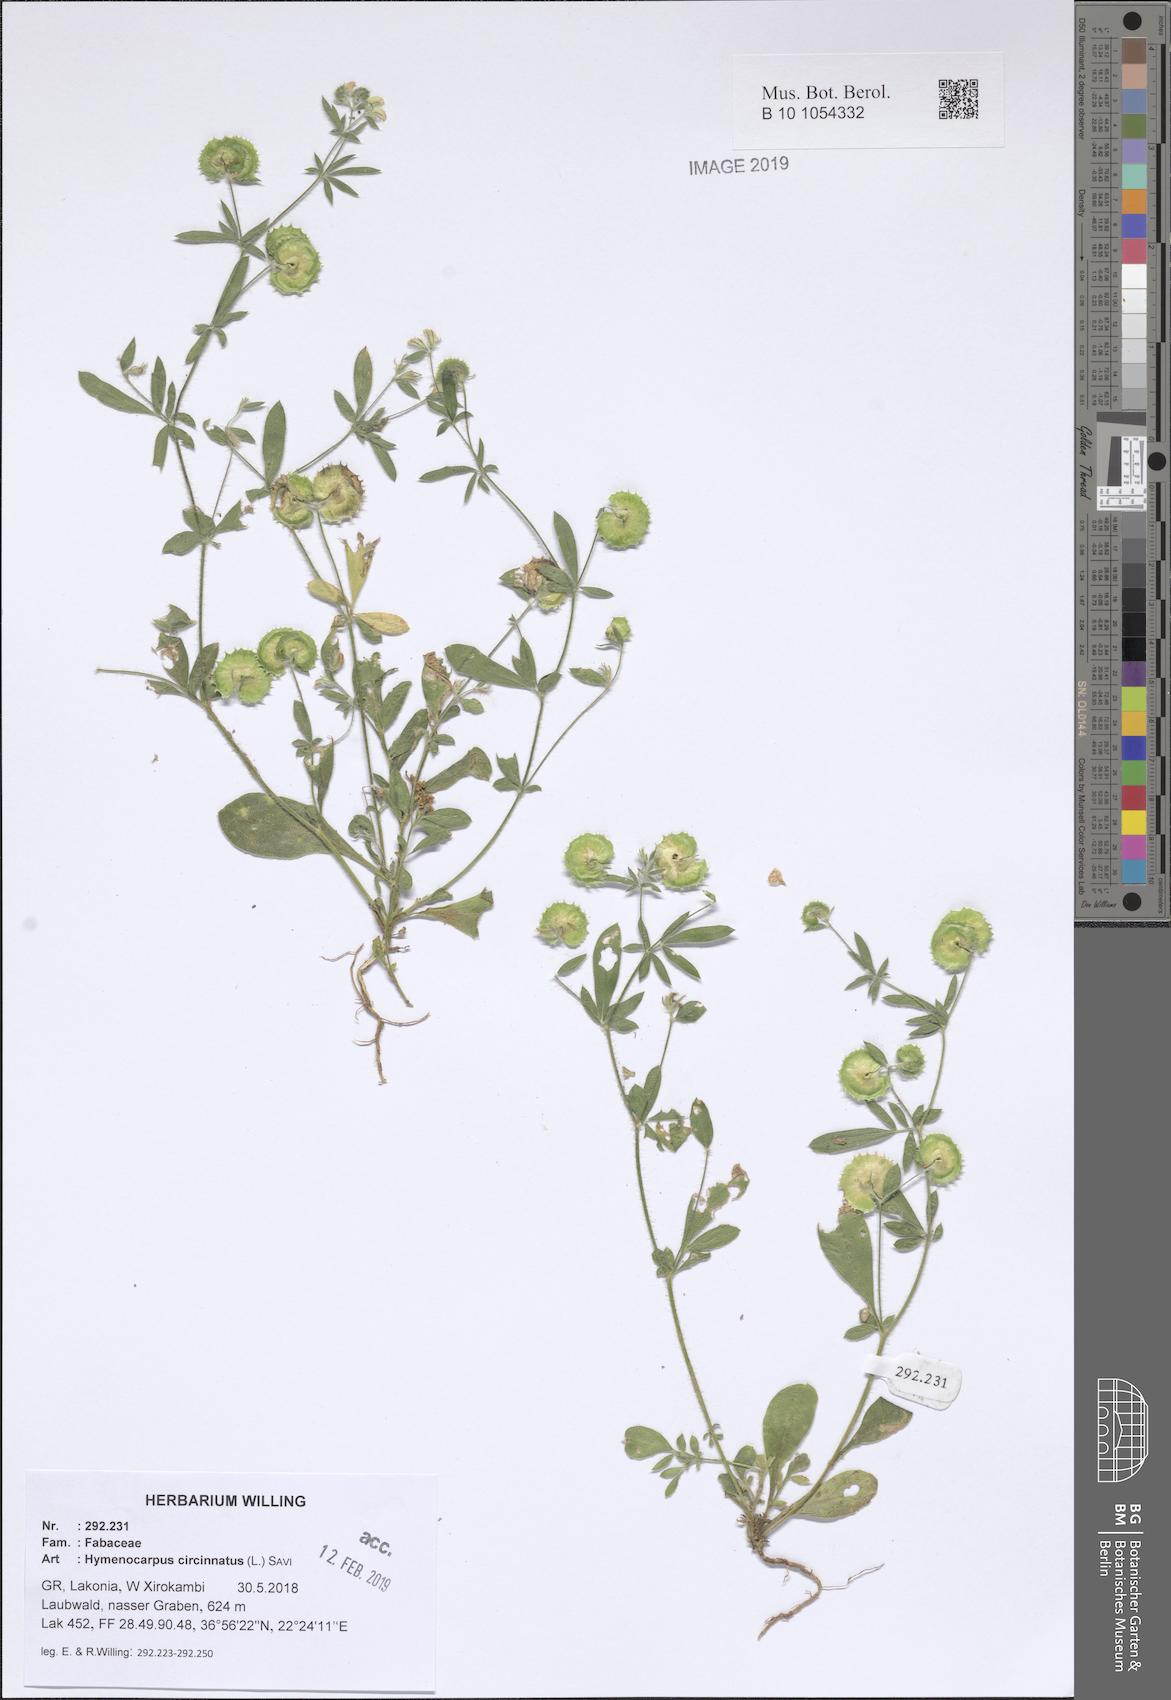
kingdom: Plantae
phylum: Tracheophyta
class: Magnoliopsida
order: Fabales
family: Fabaceae
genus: Anthyllis
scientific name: Anthyllis circinnata
